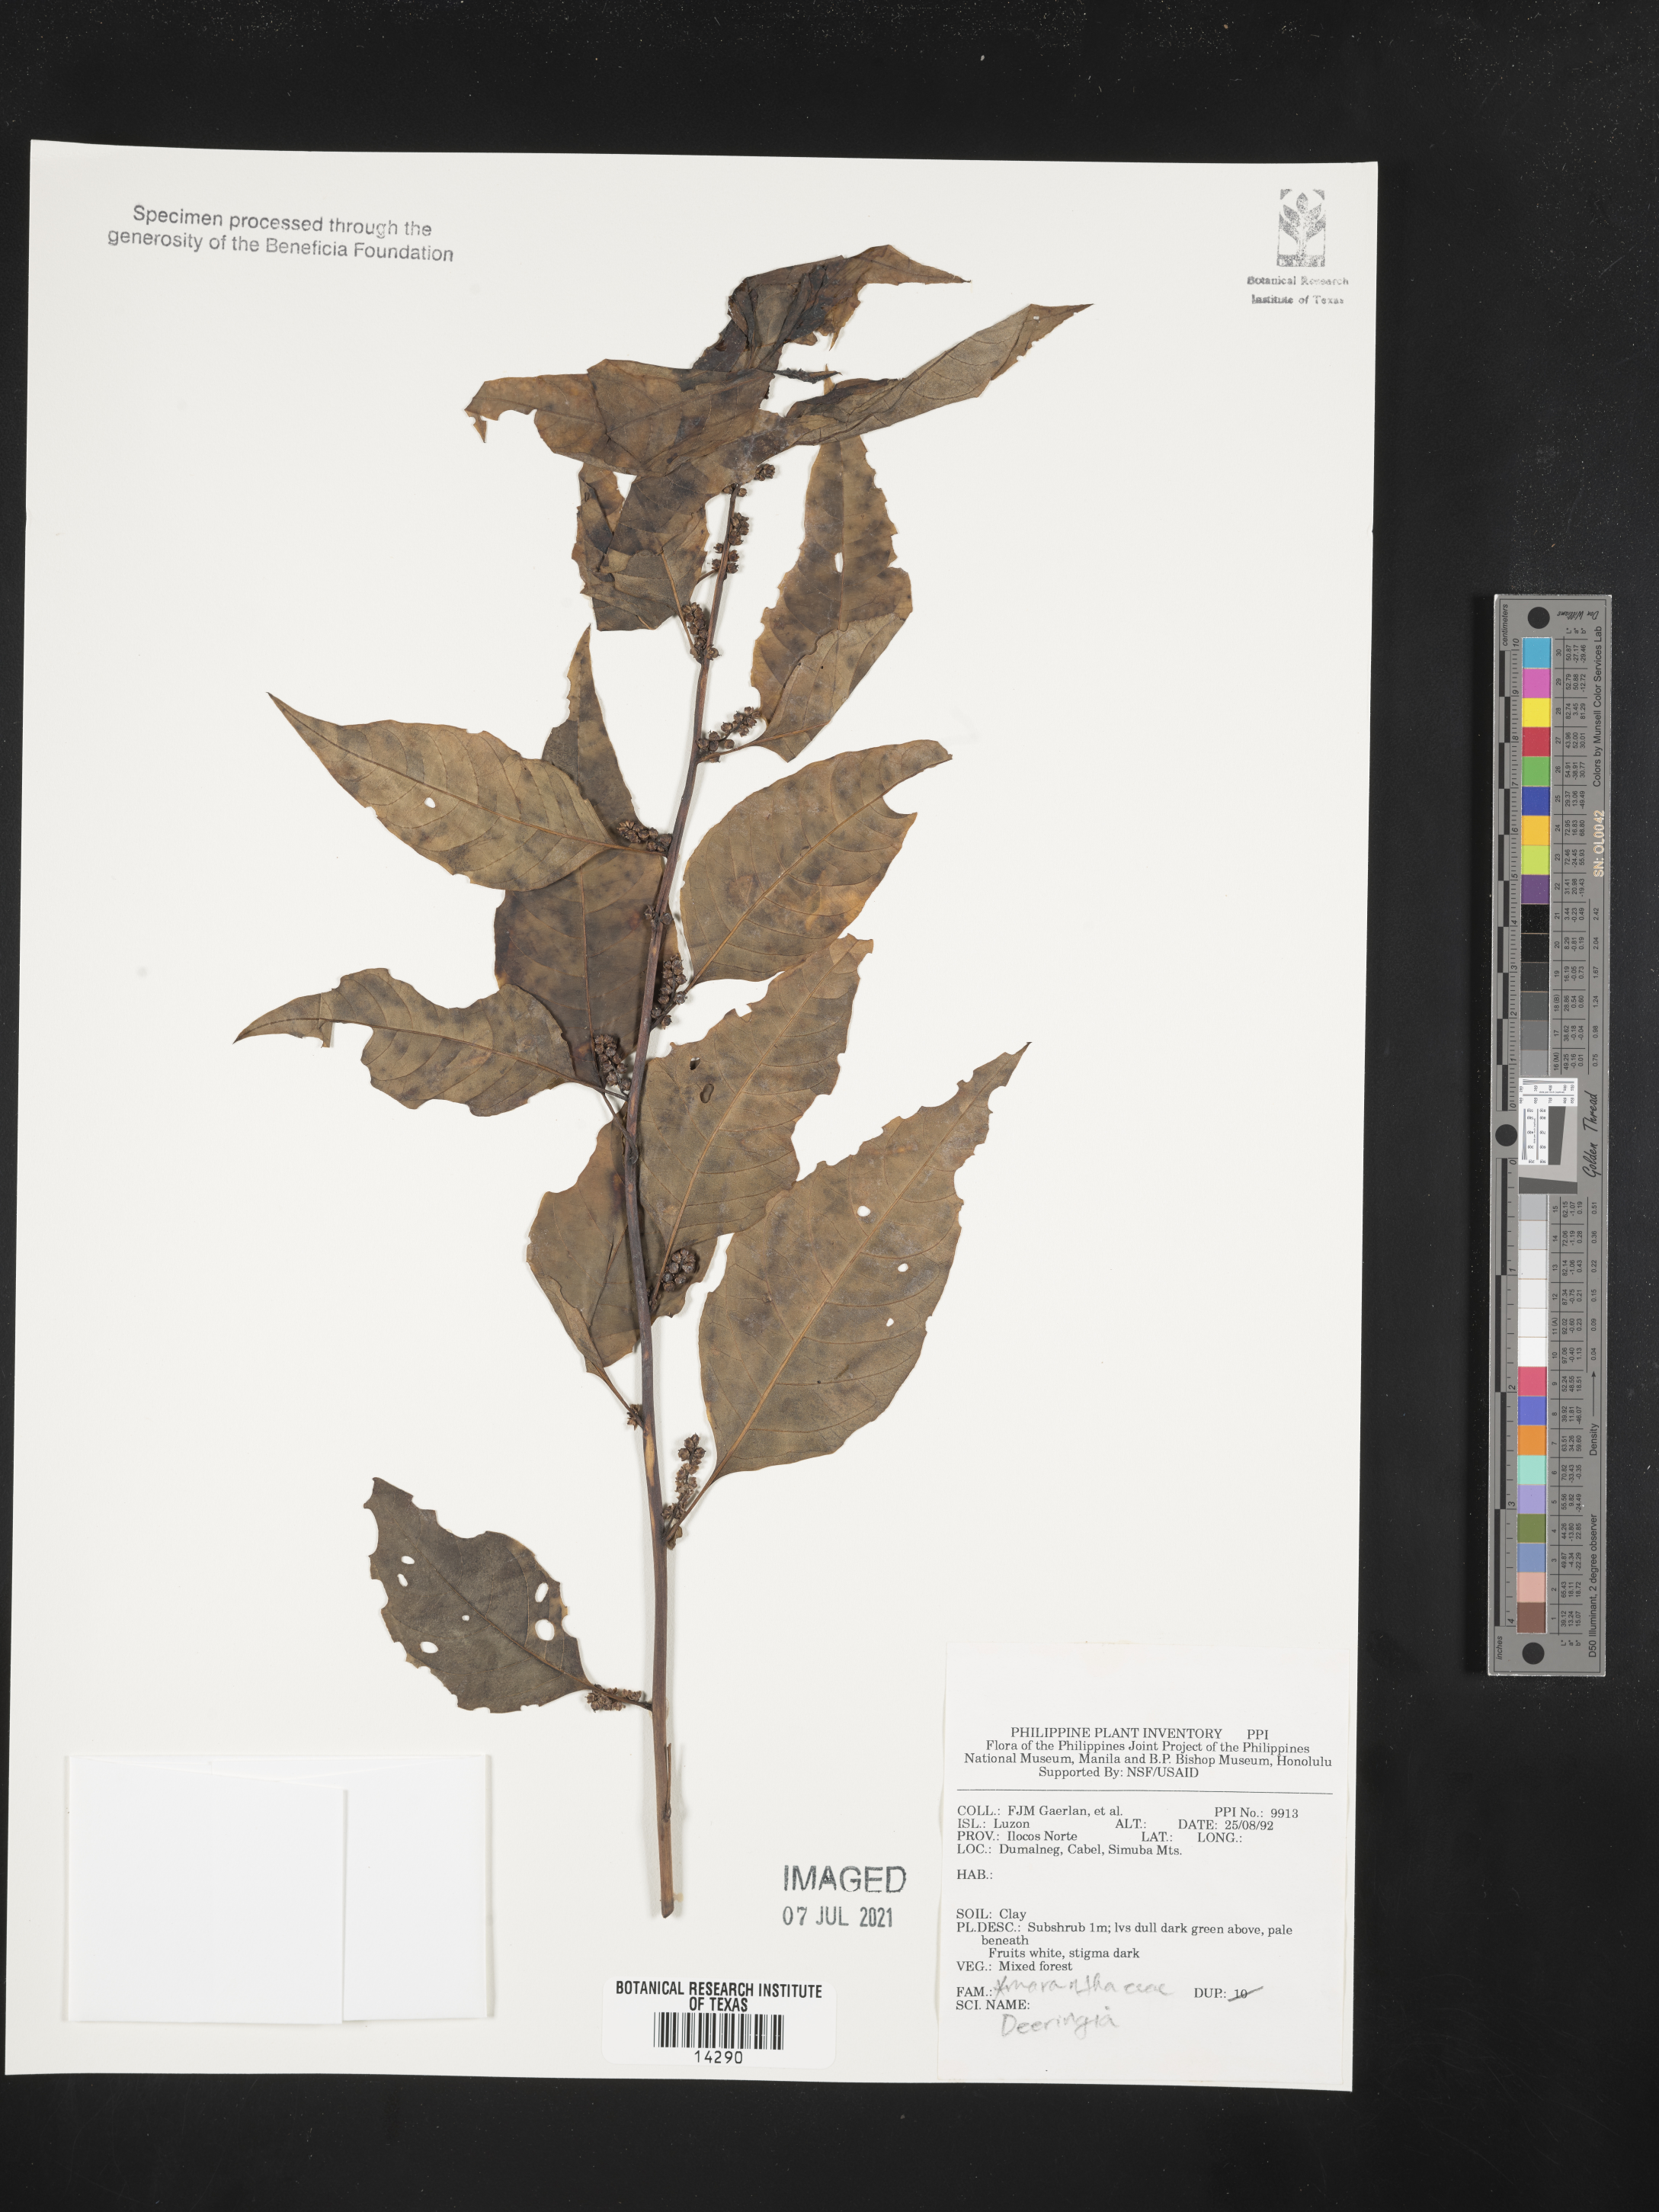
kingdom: Plantae
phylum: Tracheophyta
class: Magnoliopsida
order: Caryophyllales
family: Amaranthaceae
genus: Deeringia
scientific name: Deeringia
